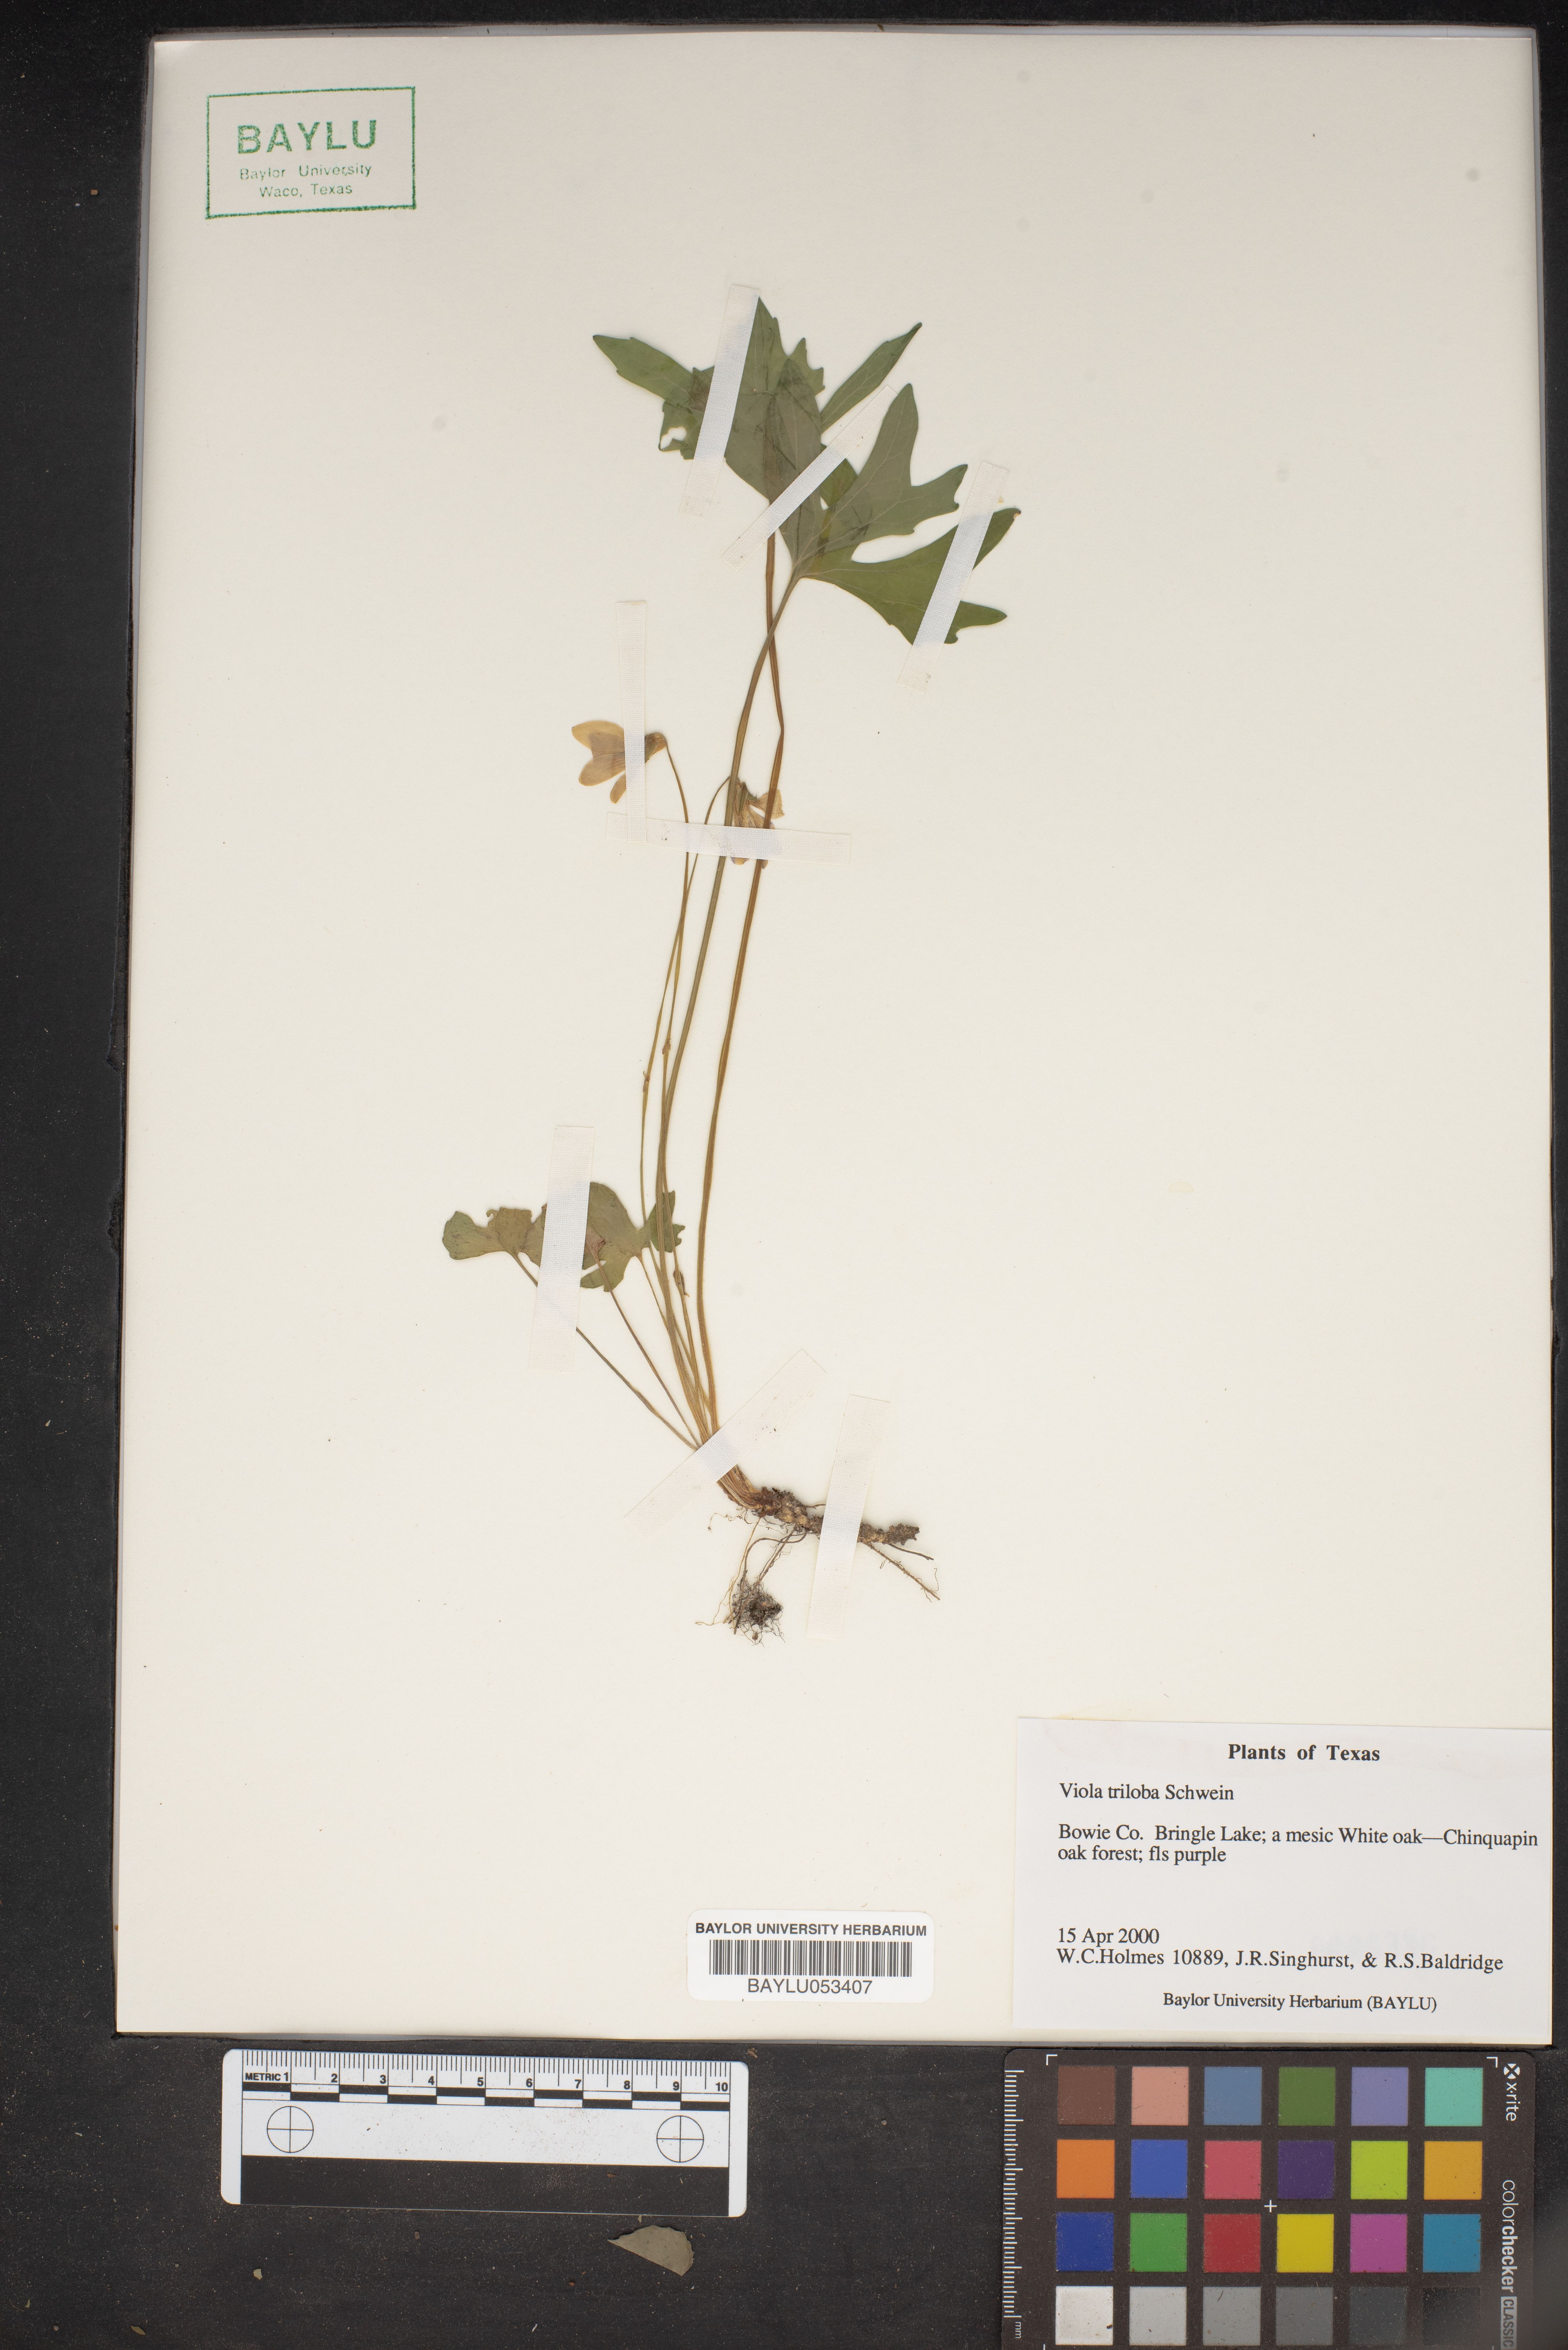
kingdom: Plantae
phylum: Tracheophyta
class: Magnoliopsida
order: Malpighiales
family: Violaceae
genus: Viola
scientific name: Viola palmata
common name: Early blue violet
